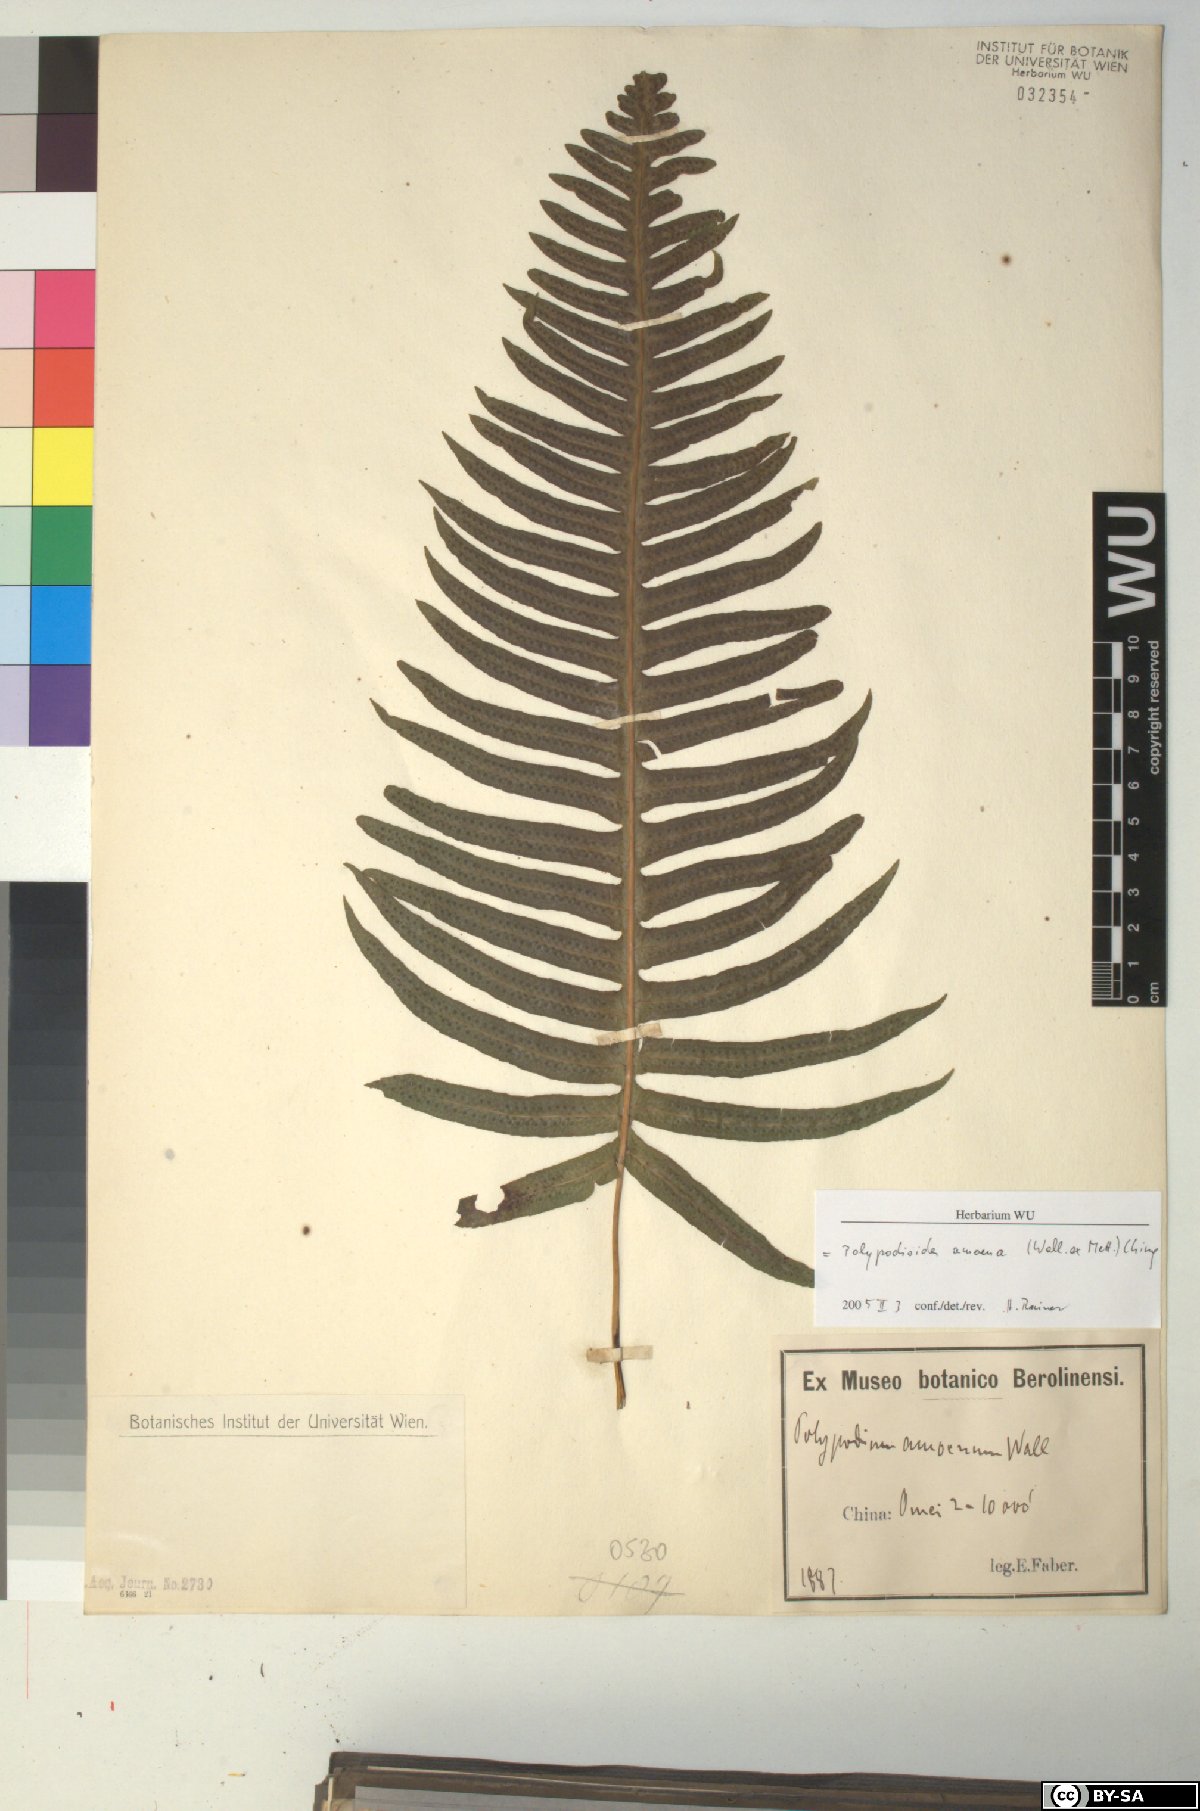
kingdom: Plantae
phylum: Tracheophyta
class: Polypodiopsida
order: Polypodiales
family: Polypodiaceae
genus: Goniophlebium
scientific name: Goniophlebium amoenum
